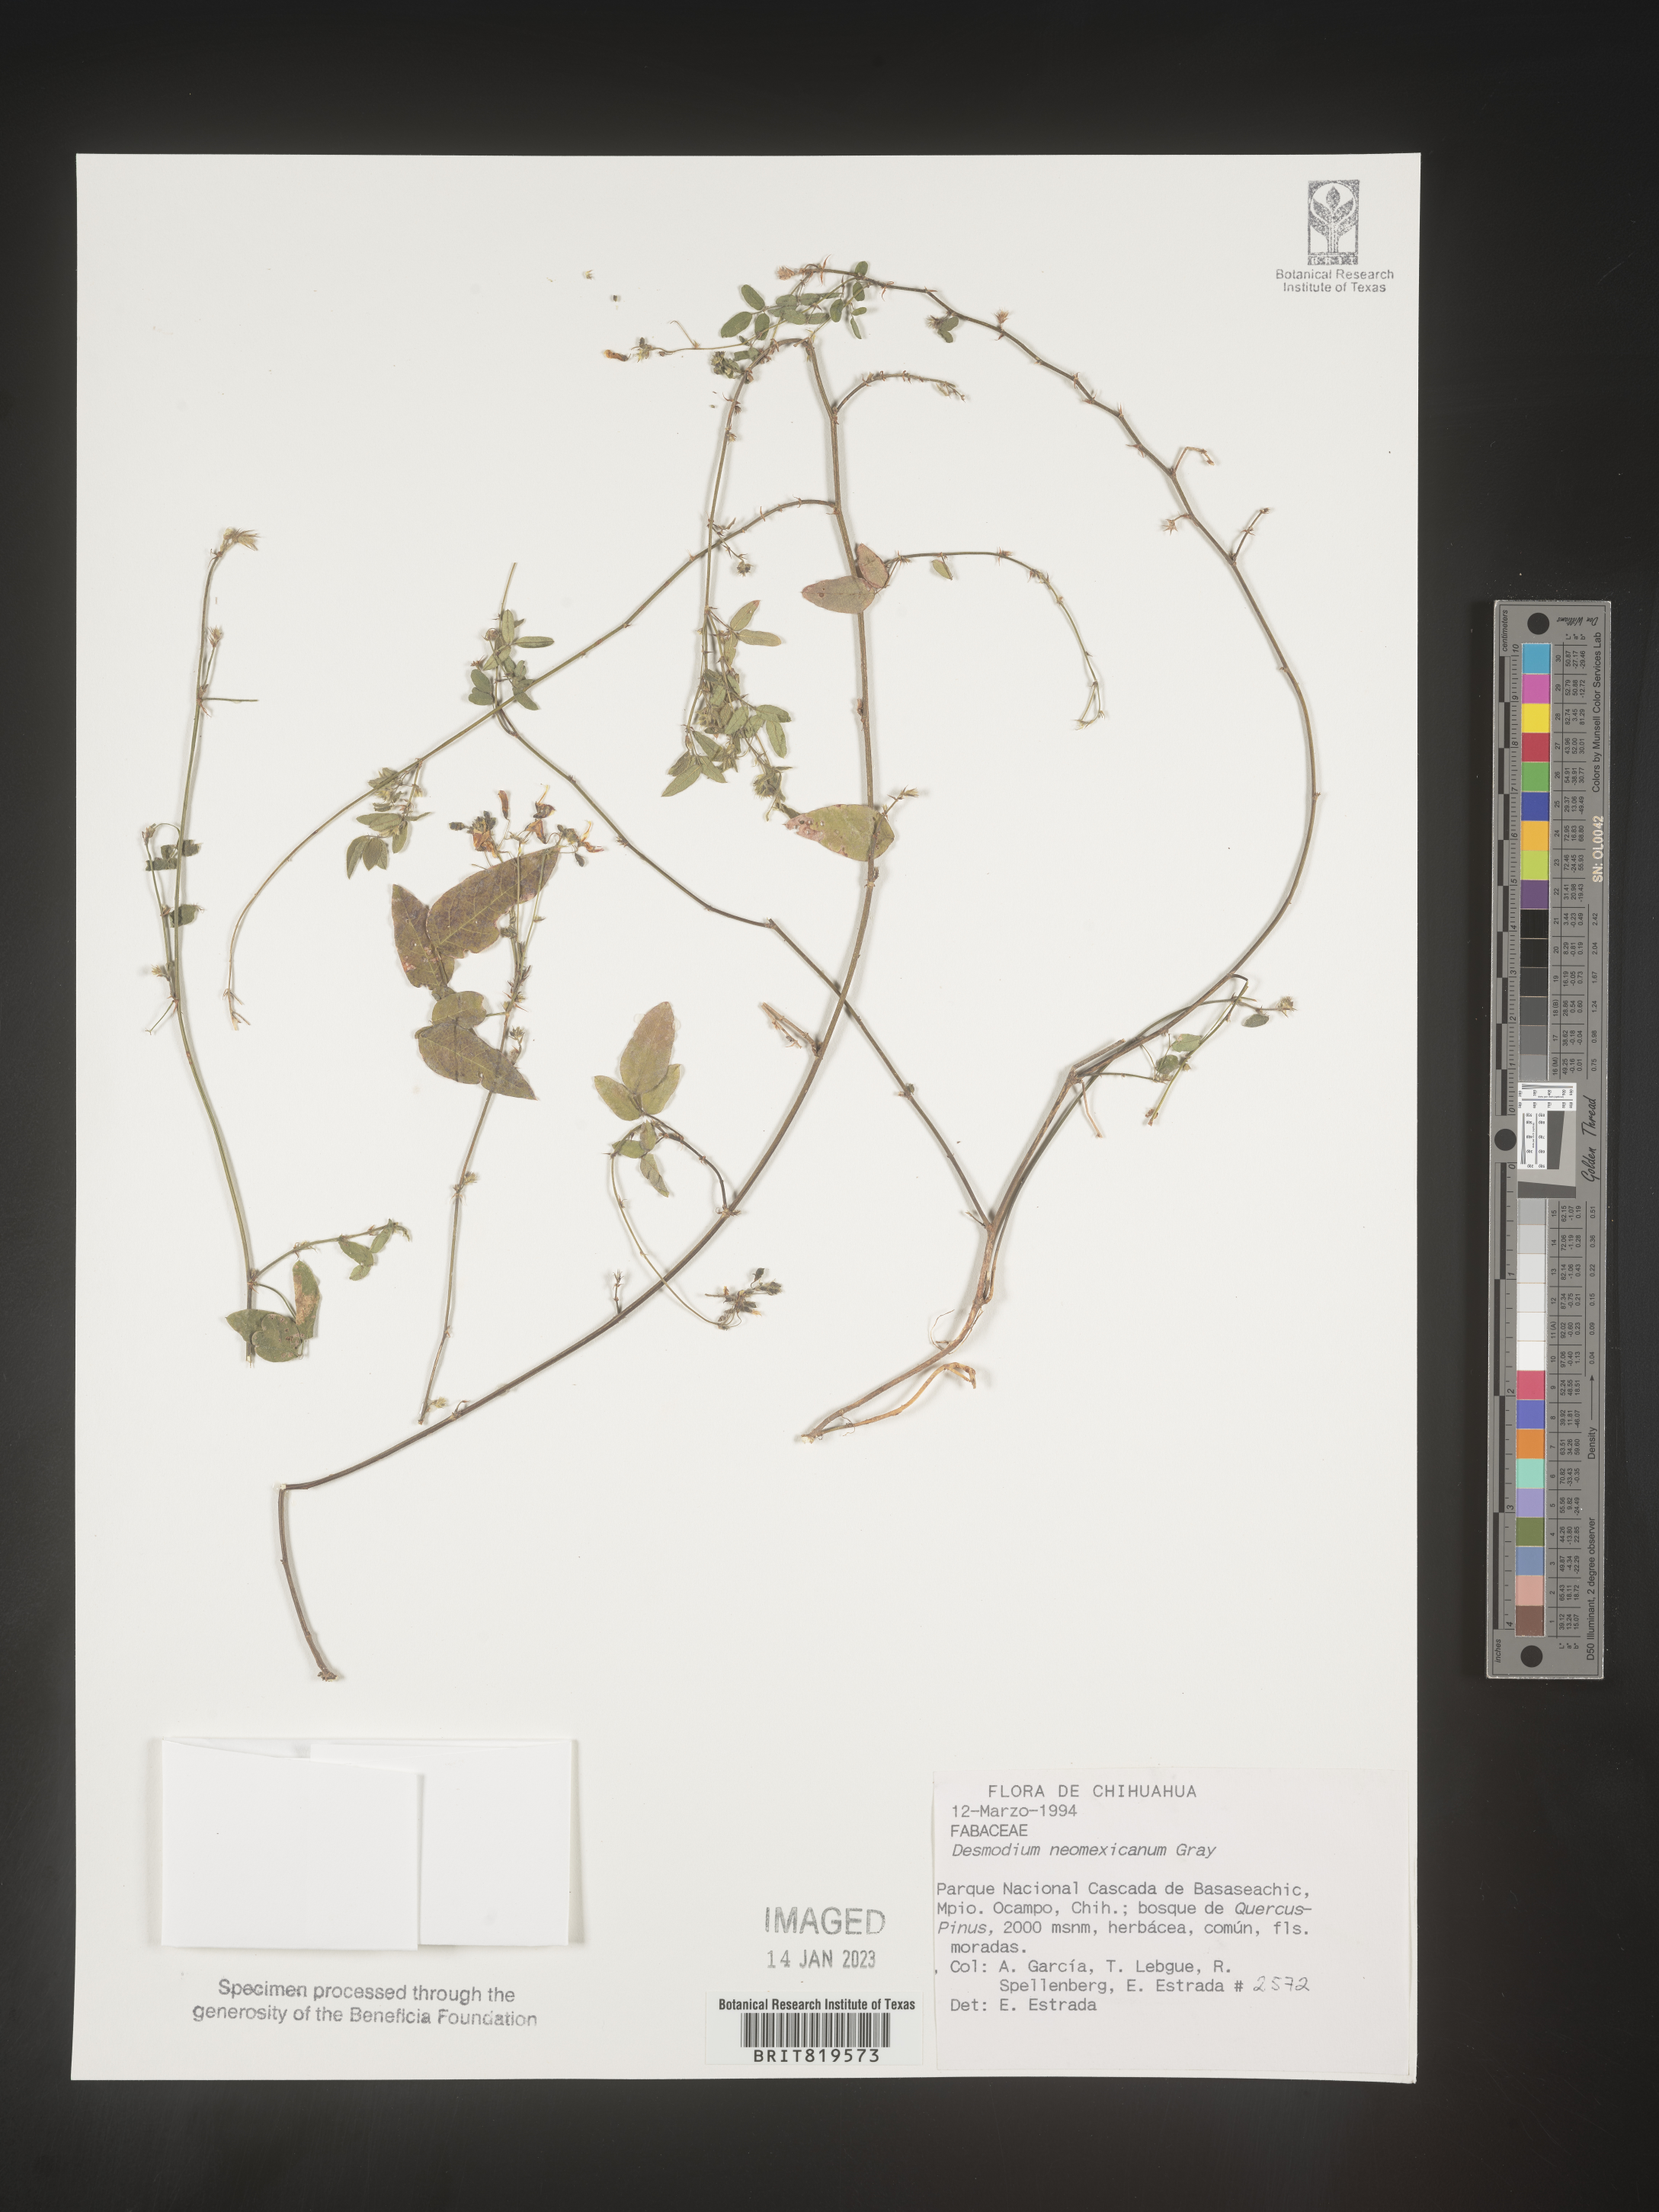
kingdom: Plantae
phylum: Tracheophyta
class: Magnoliopsida
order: Fabales
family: Fabaceae
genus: Desmodium
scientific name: Desmodium
